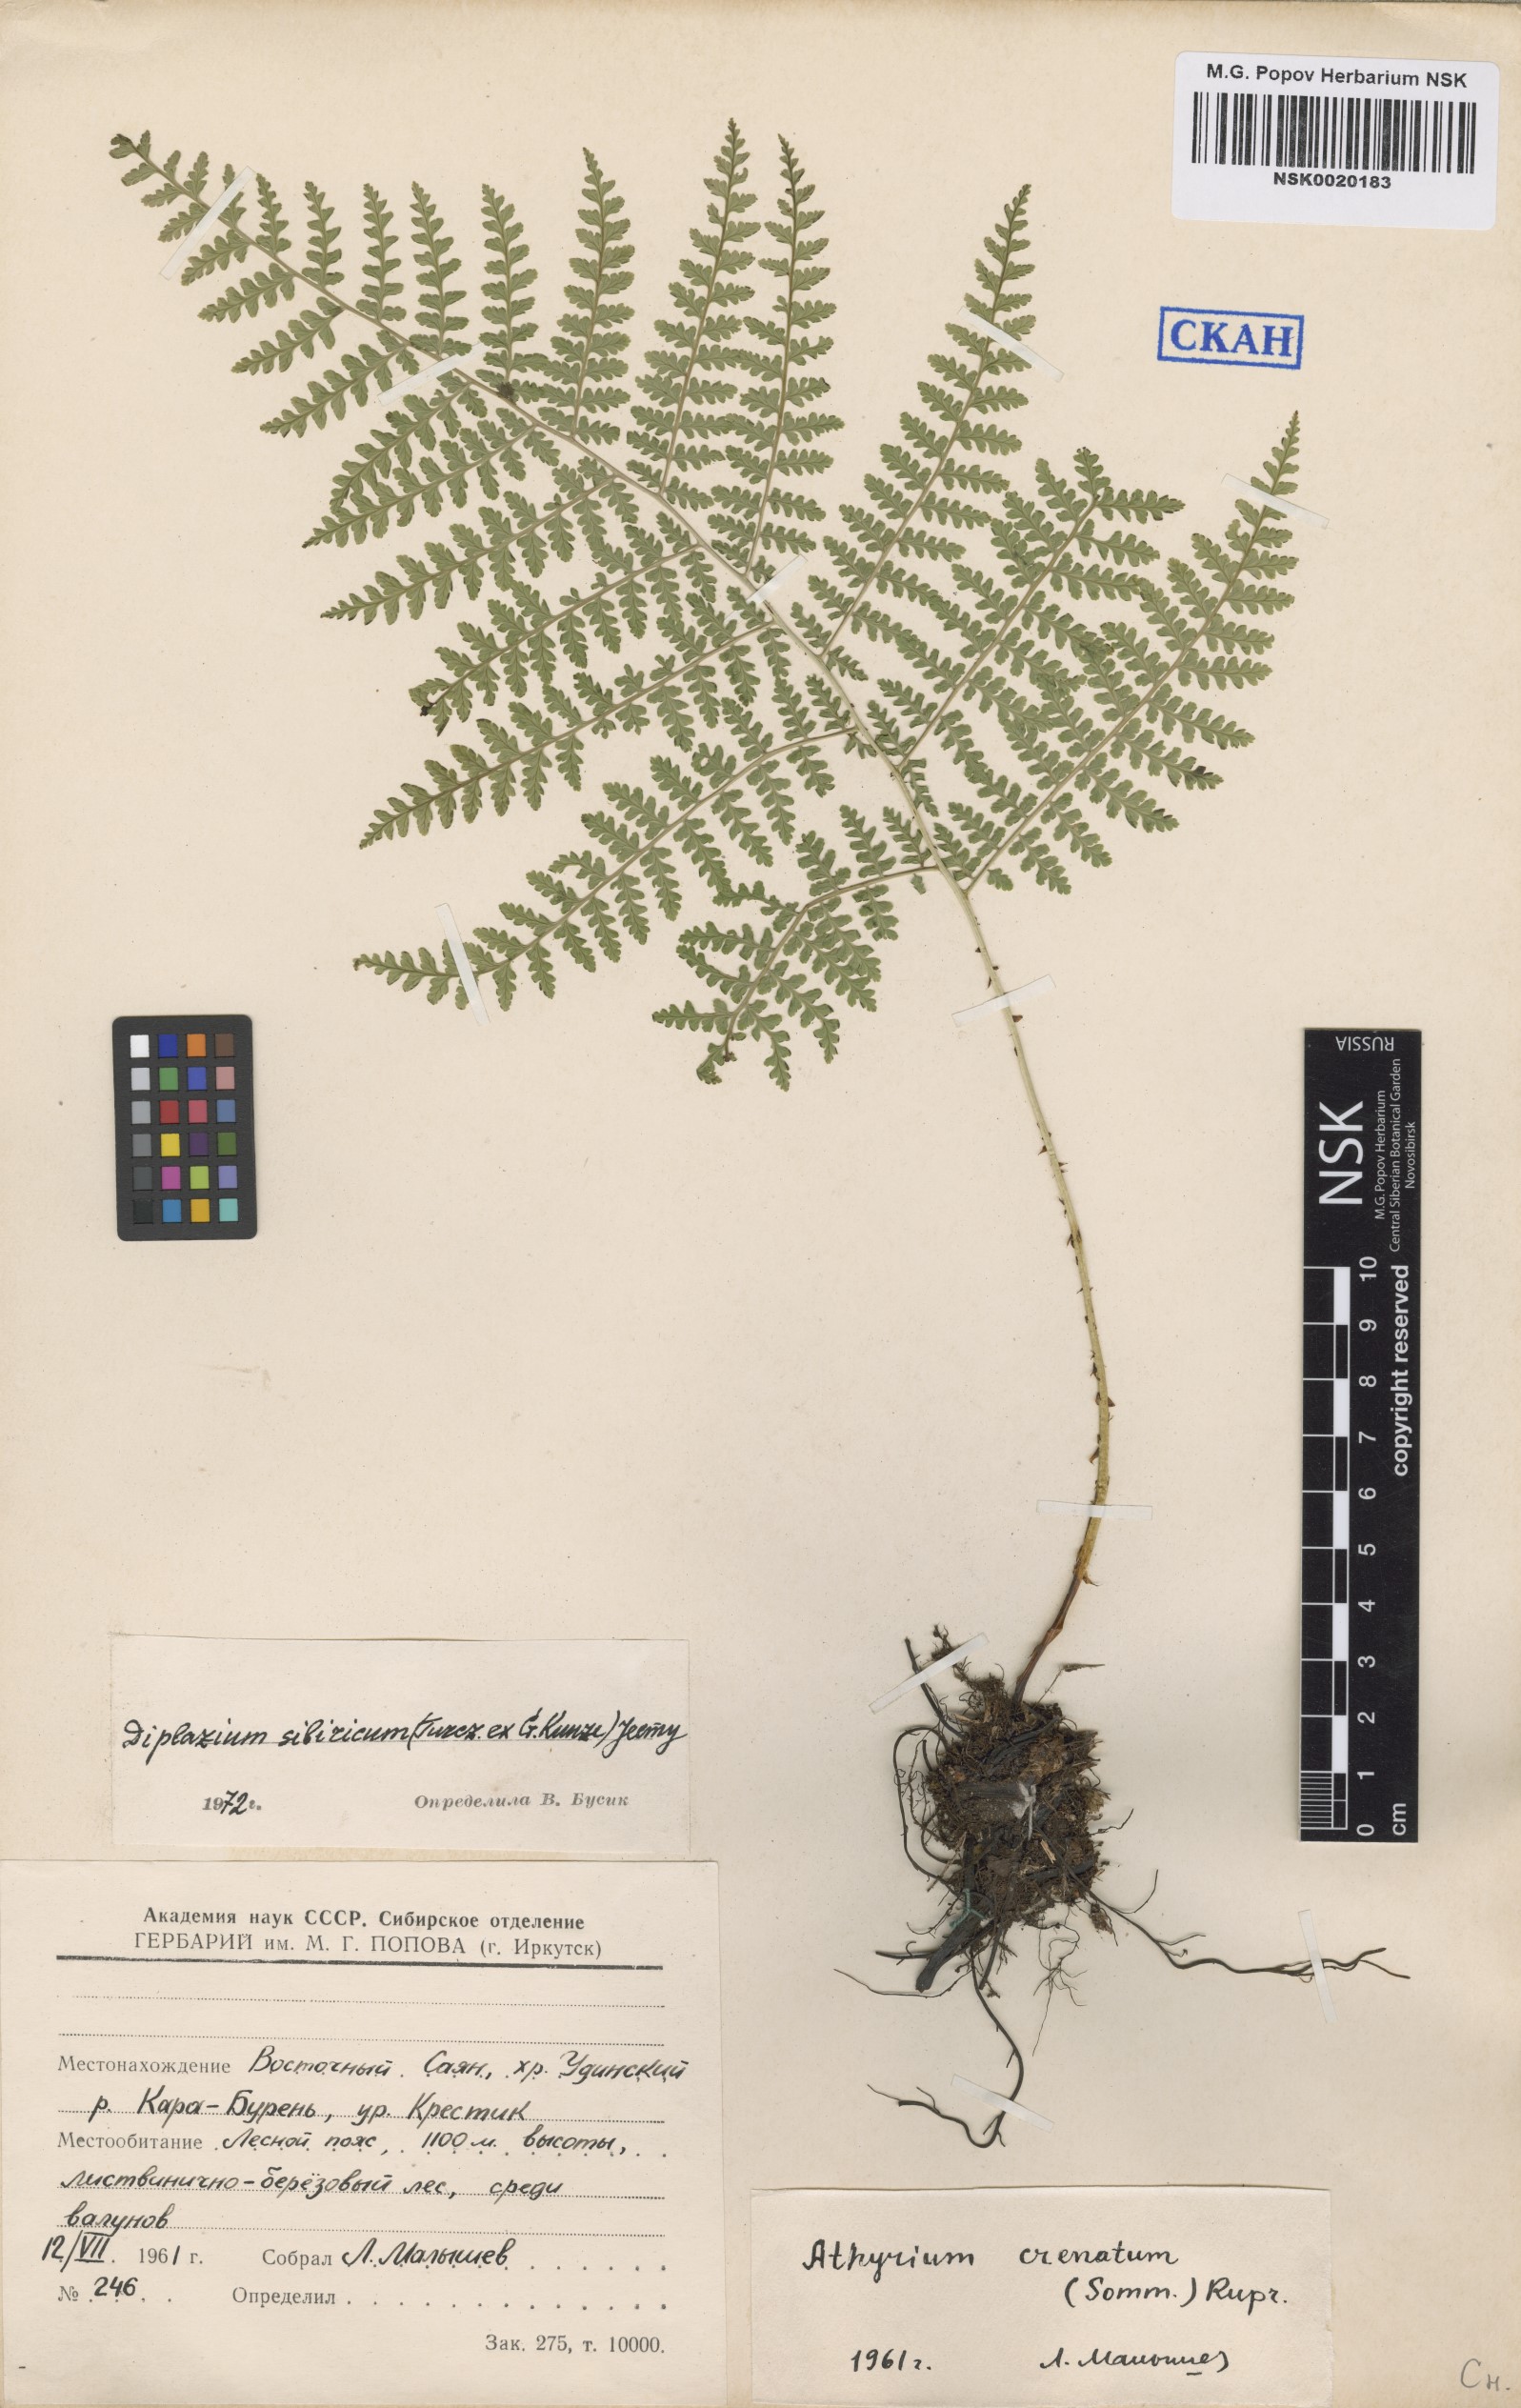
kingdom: Plantae
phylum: Tracheophyta
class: Polypodiopsida
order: Polypodiales
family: Athyriaceae
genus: Diplazium
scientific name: Diplazium sibiricum
